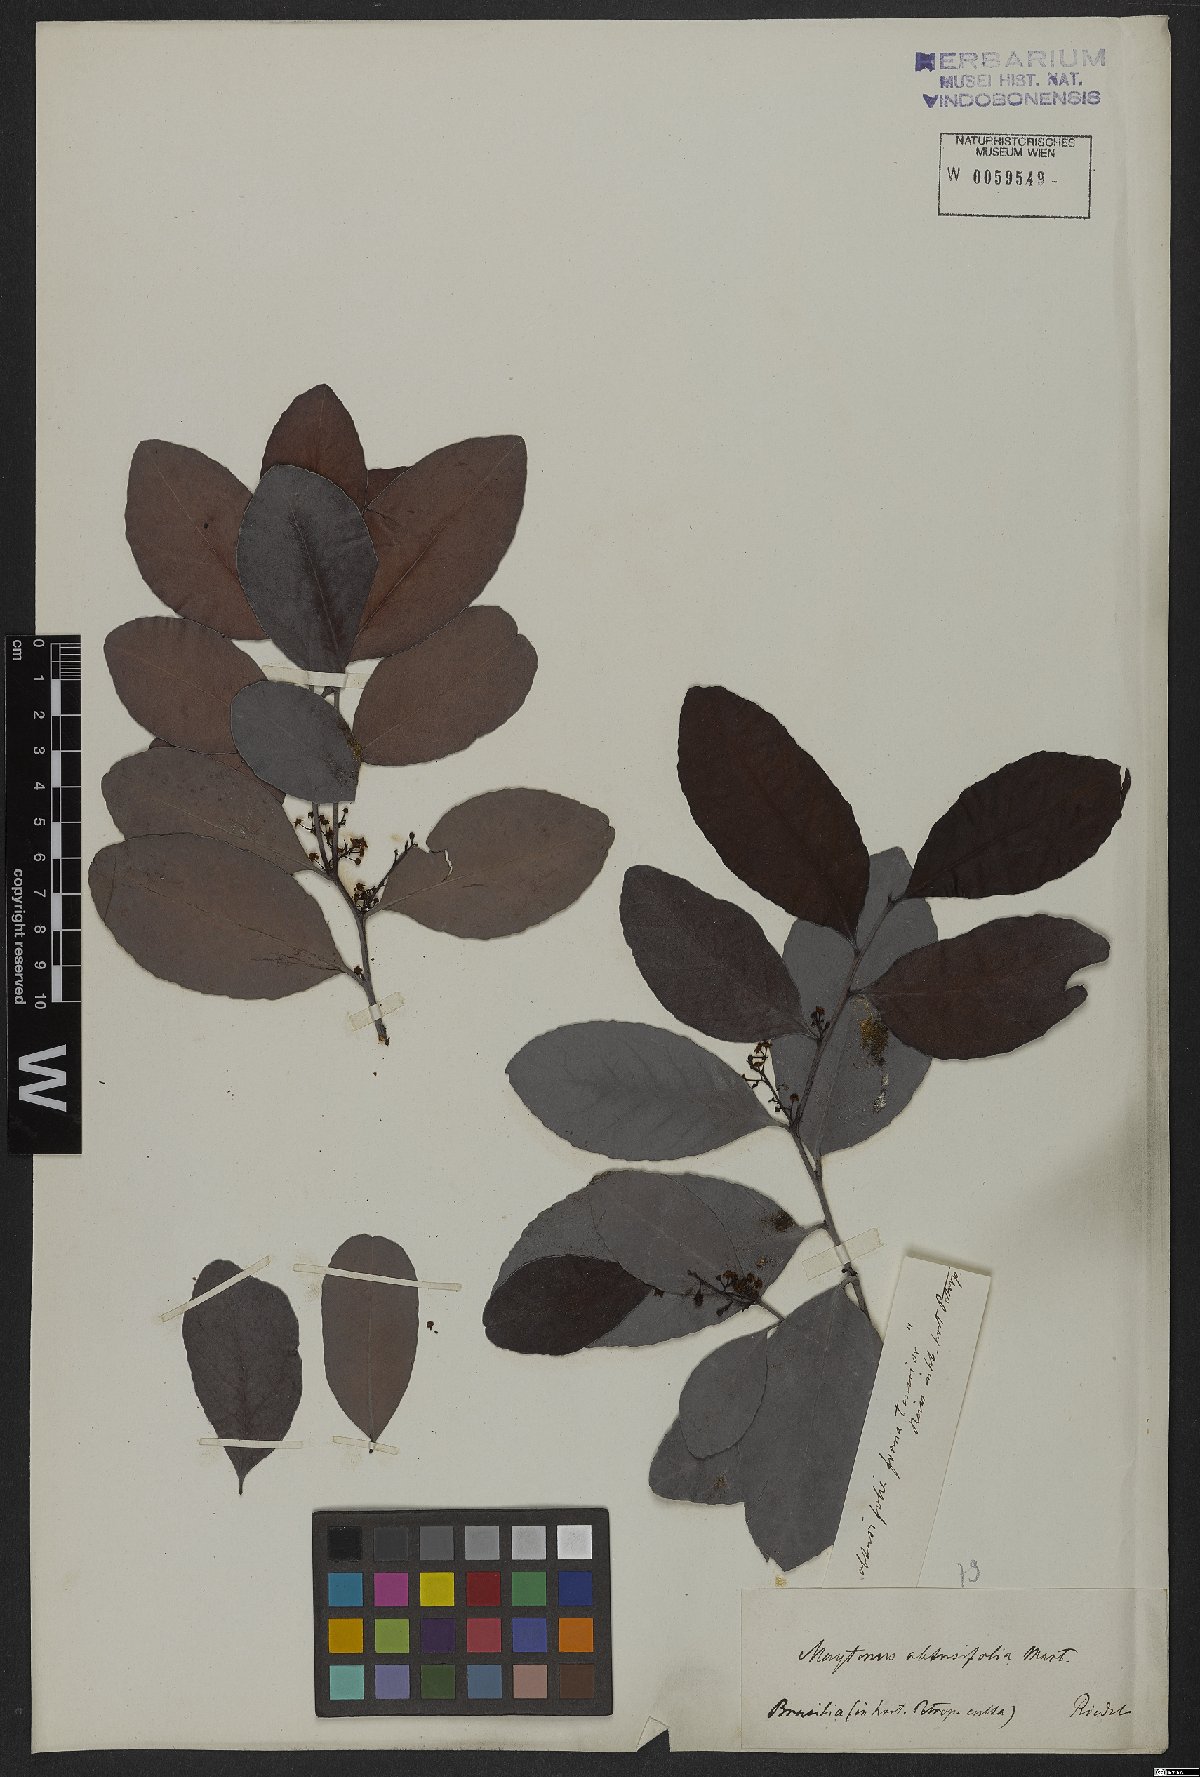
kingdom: Plantae
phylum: Tracheophyta
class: Magnoliopsida
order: Celastrales
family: Celastraceae
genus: Monteverdia
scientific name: Monteverdia obtusifolia
